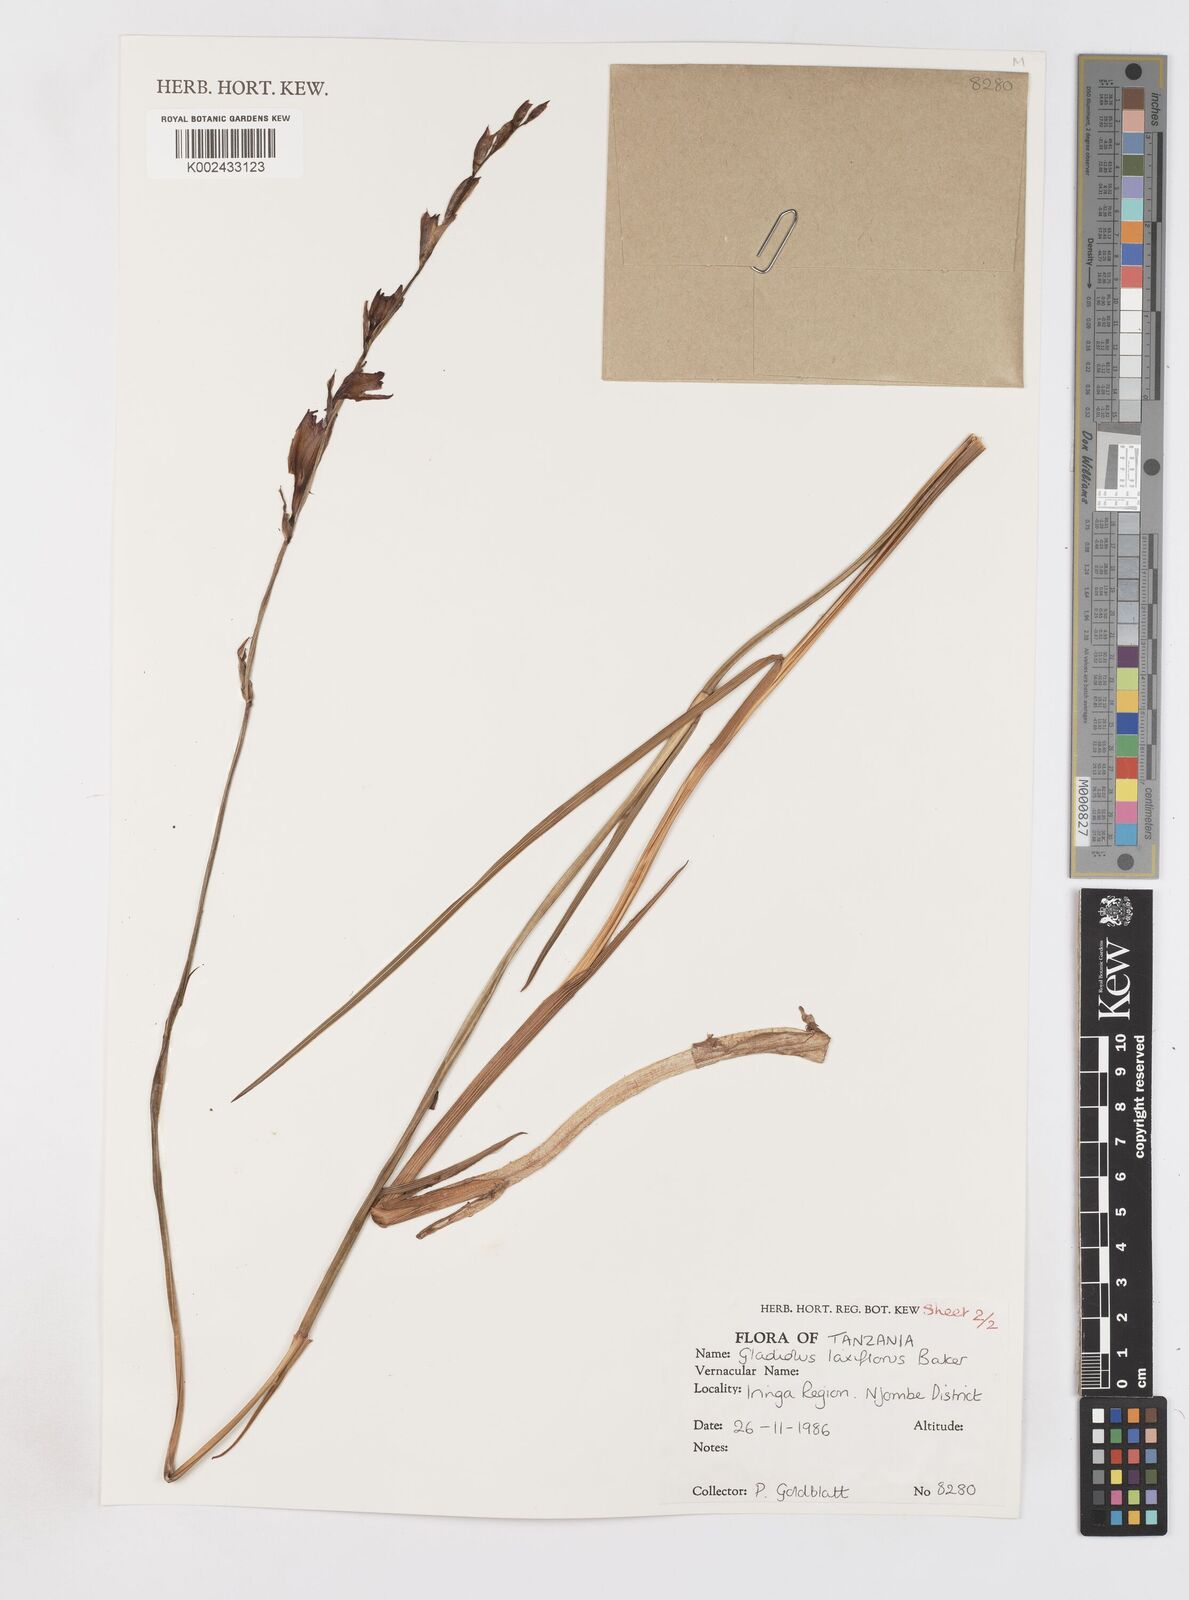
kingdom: Plantae
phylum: Tracheophyta
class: Liliopsida
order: Asparagales
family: Iridaceae
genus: Gladiolus
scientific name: Gladiolus laxiflorus
